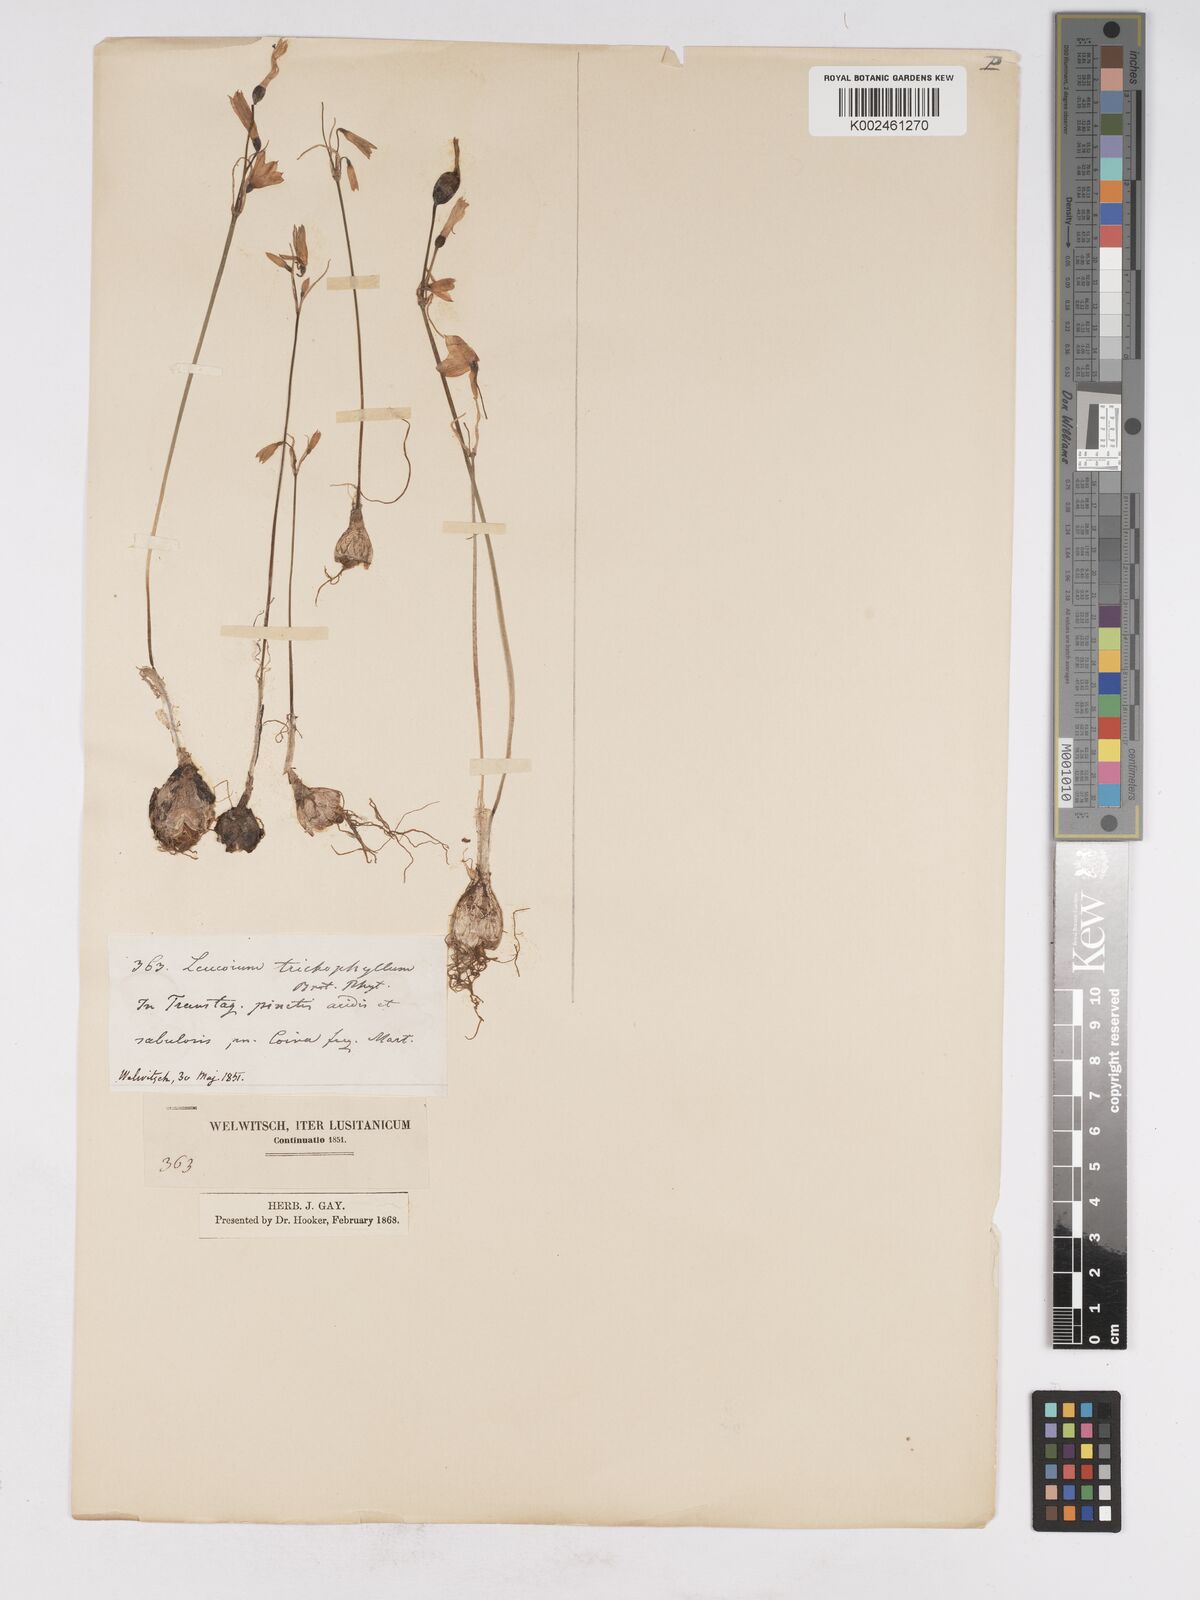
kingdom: Plantae
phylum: Tracheophyta
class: Liliopsida
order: Asparagales
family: Amaryllidaceae
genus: Acis
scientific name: Acis trichophylla
